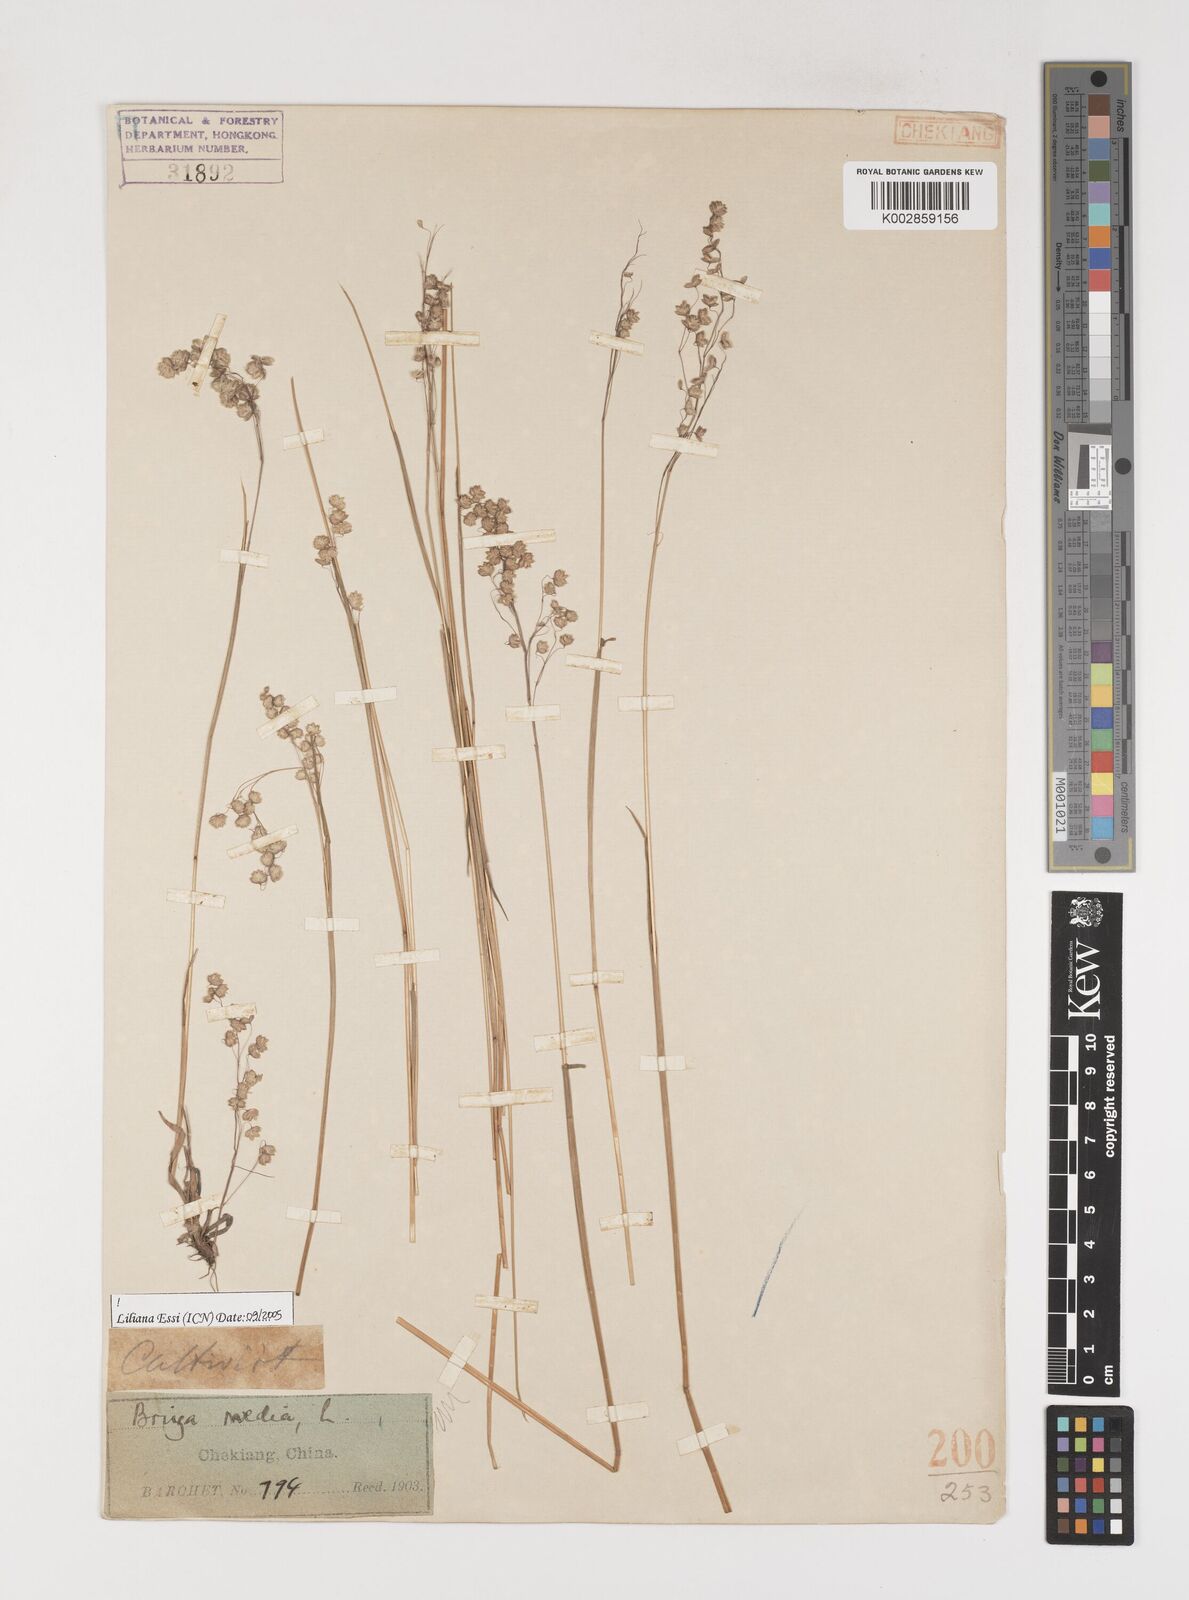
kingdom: Plantae
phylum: Tracheophyta
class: Liliopsida
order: Poales
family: Poaceae
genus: Briza
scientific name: Briza media
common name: Quaking grass
